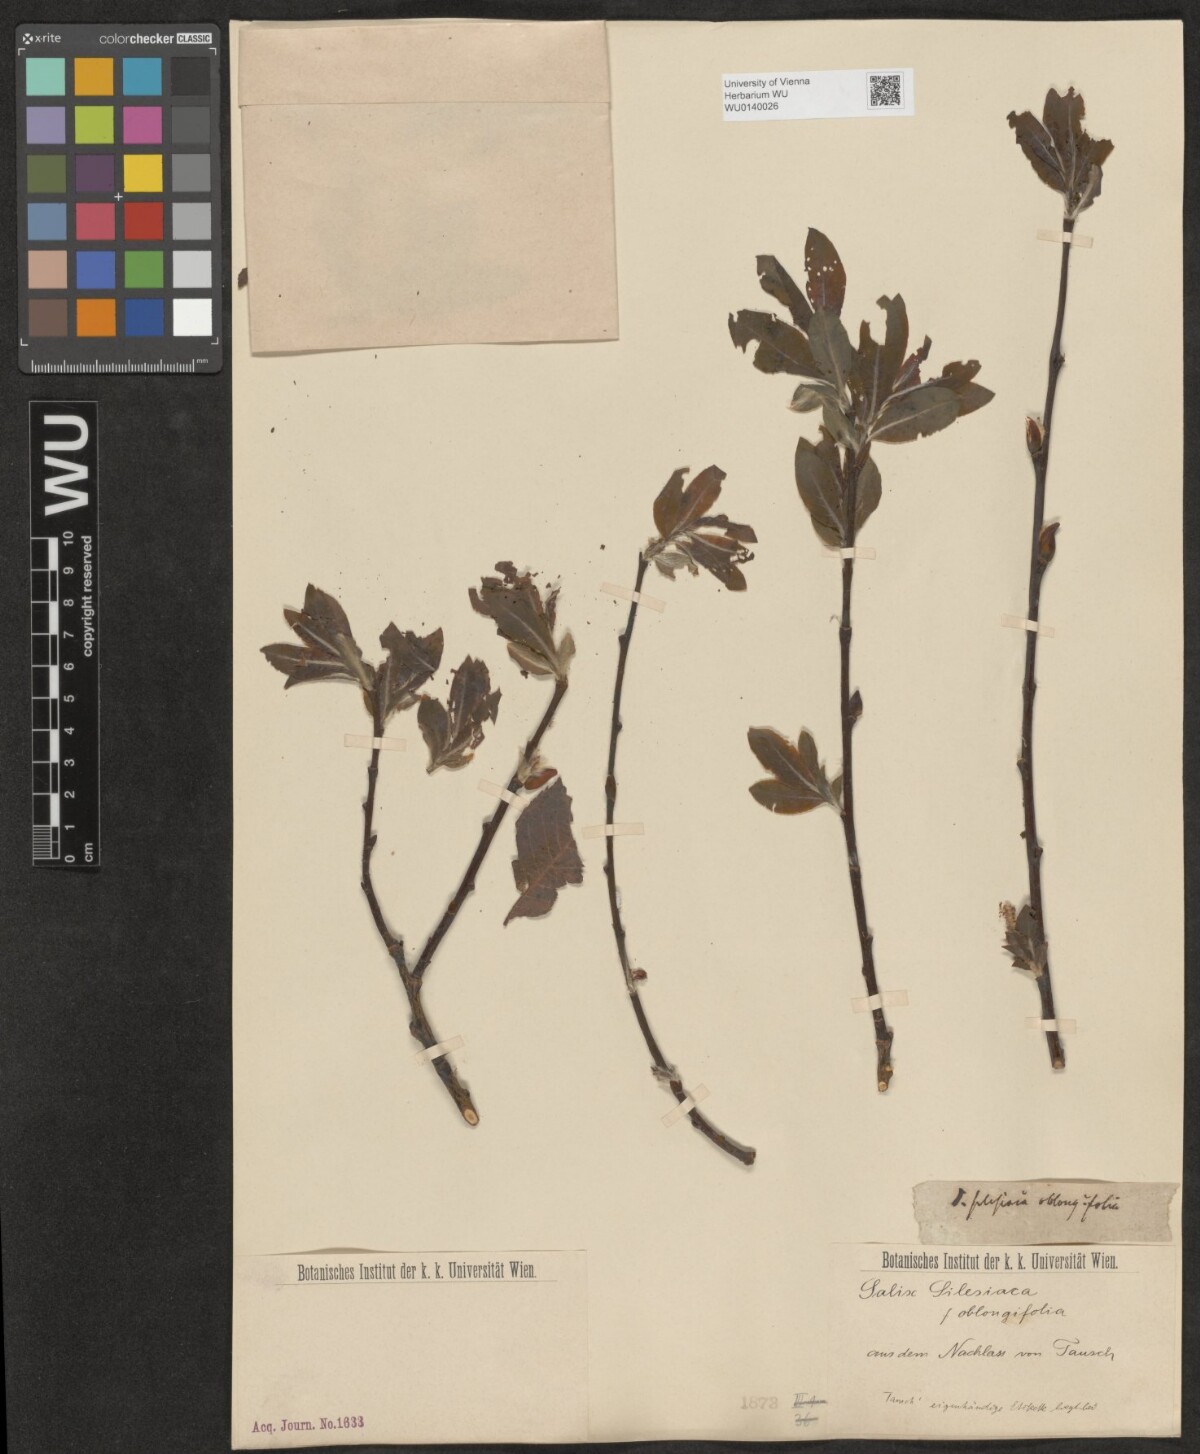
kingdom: Plantae
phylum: Tracheophyta
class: Magnoliopsida
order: Malpighiales
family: Salicaceae
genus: Salix
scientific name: Salix silesiaca
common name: Silesian willow
